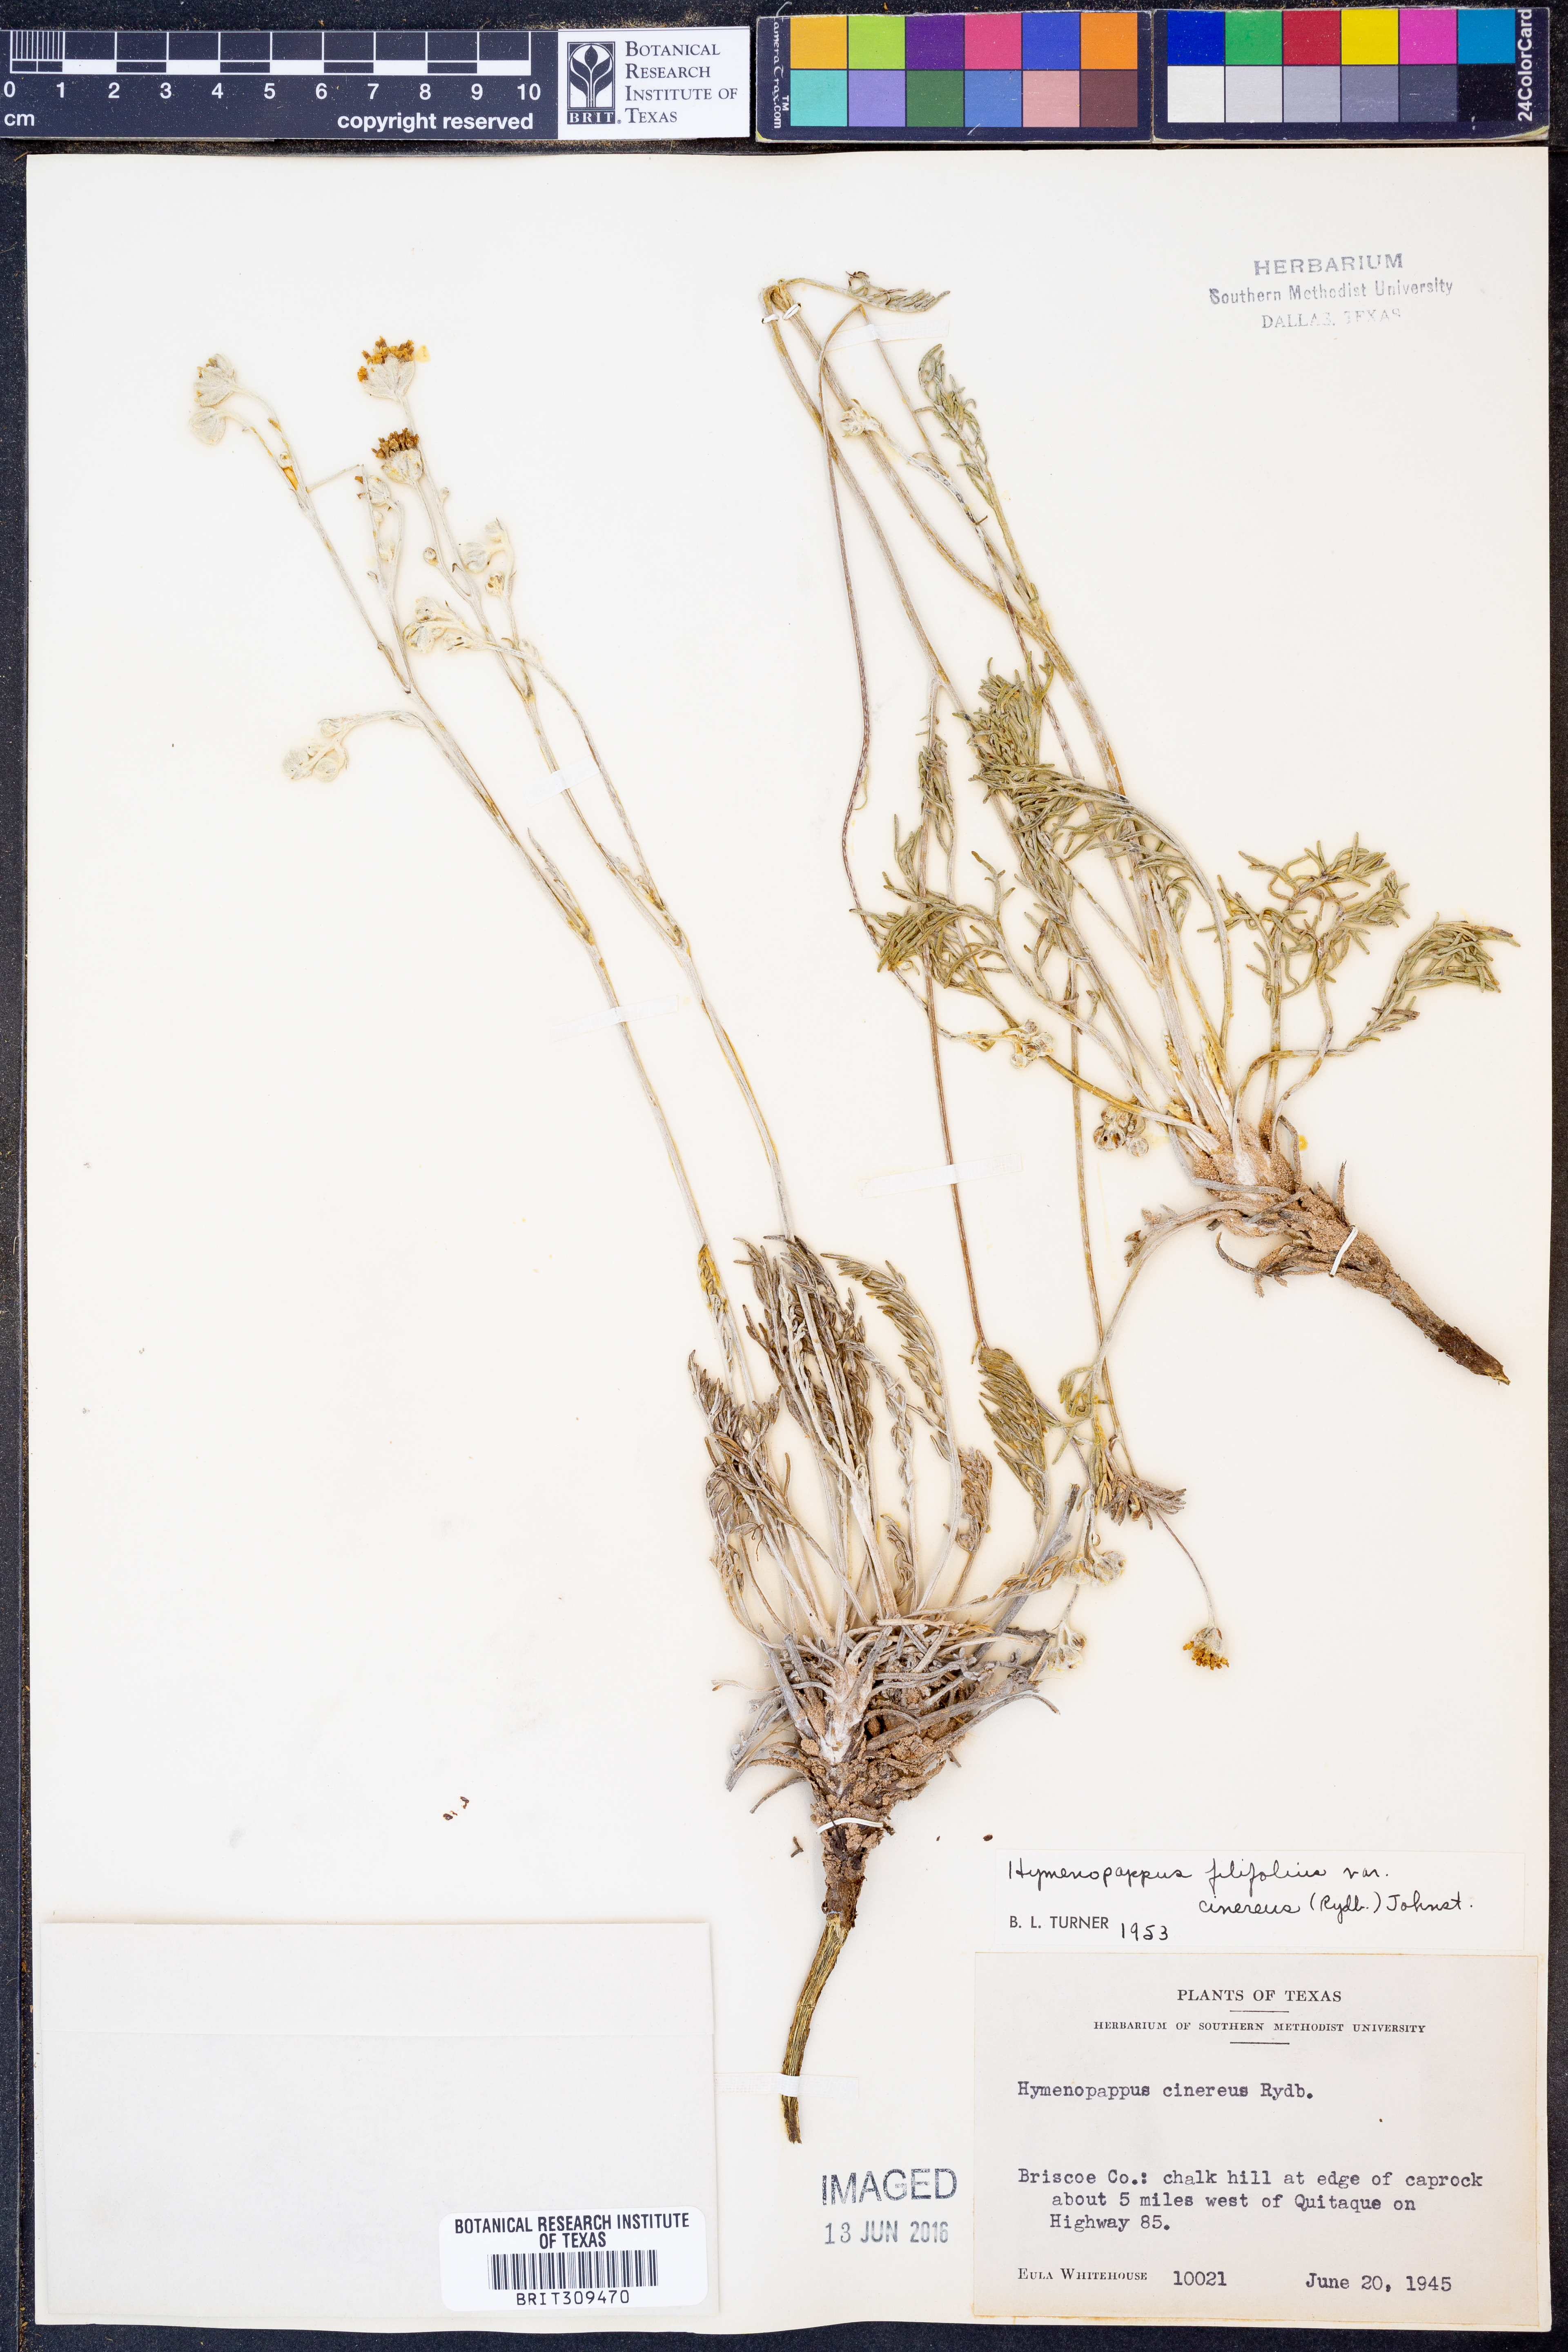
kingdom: Plantae
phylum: Tracheophyta
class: Magnoliopsida
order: Asterales
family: Asteraceae
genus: Hymenopappus
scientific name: Hymenopappus filifolius
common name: Columbia cutleaf
